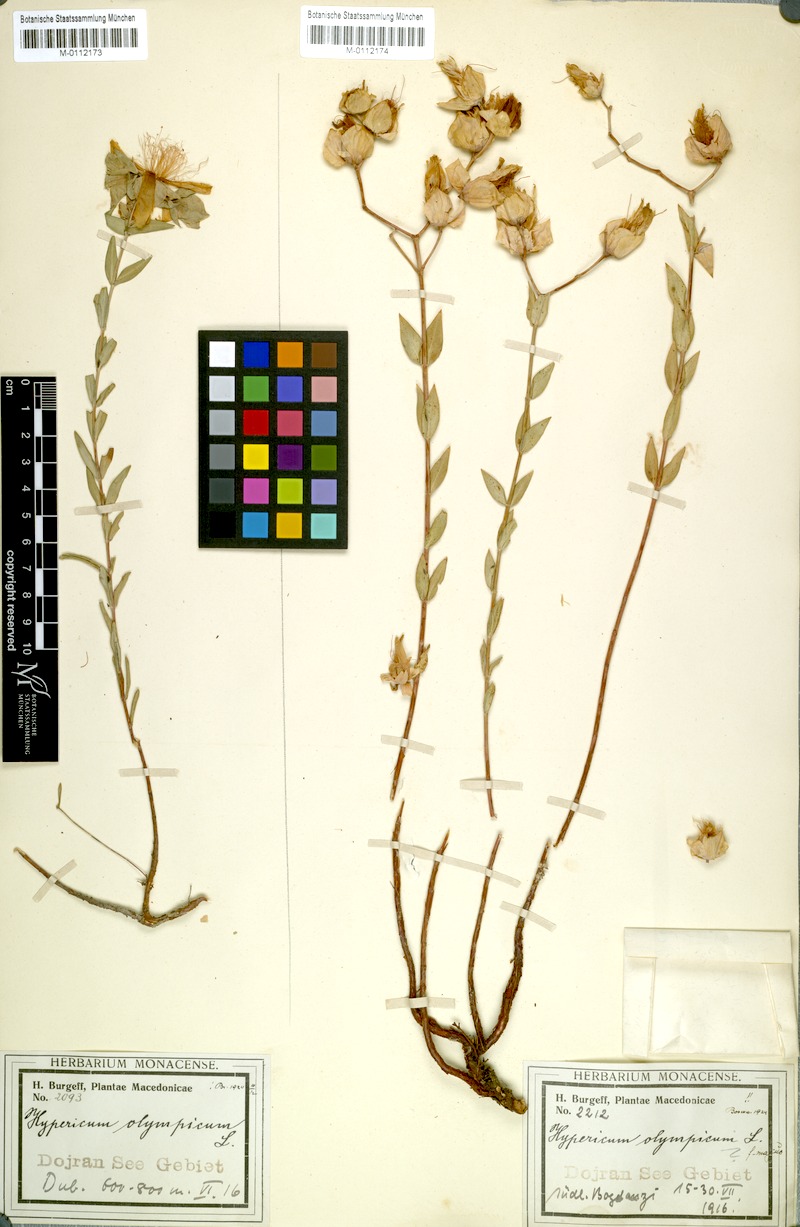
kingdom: Plantae
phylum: Tracheophyta
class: Magnoliopsida
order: Malpighiales
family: Hypericaceae
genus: Hypericum
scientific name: Hypericum olympicum
